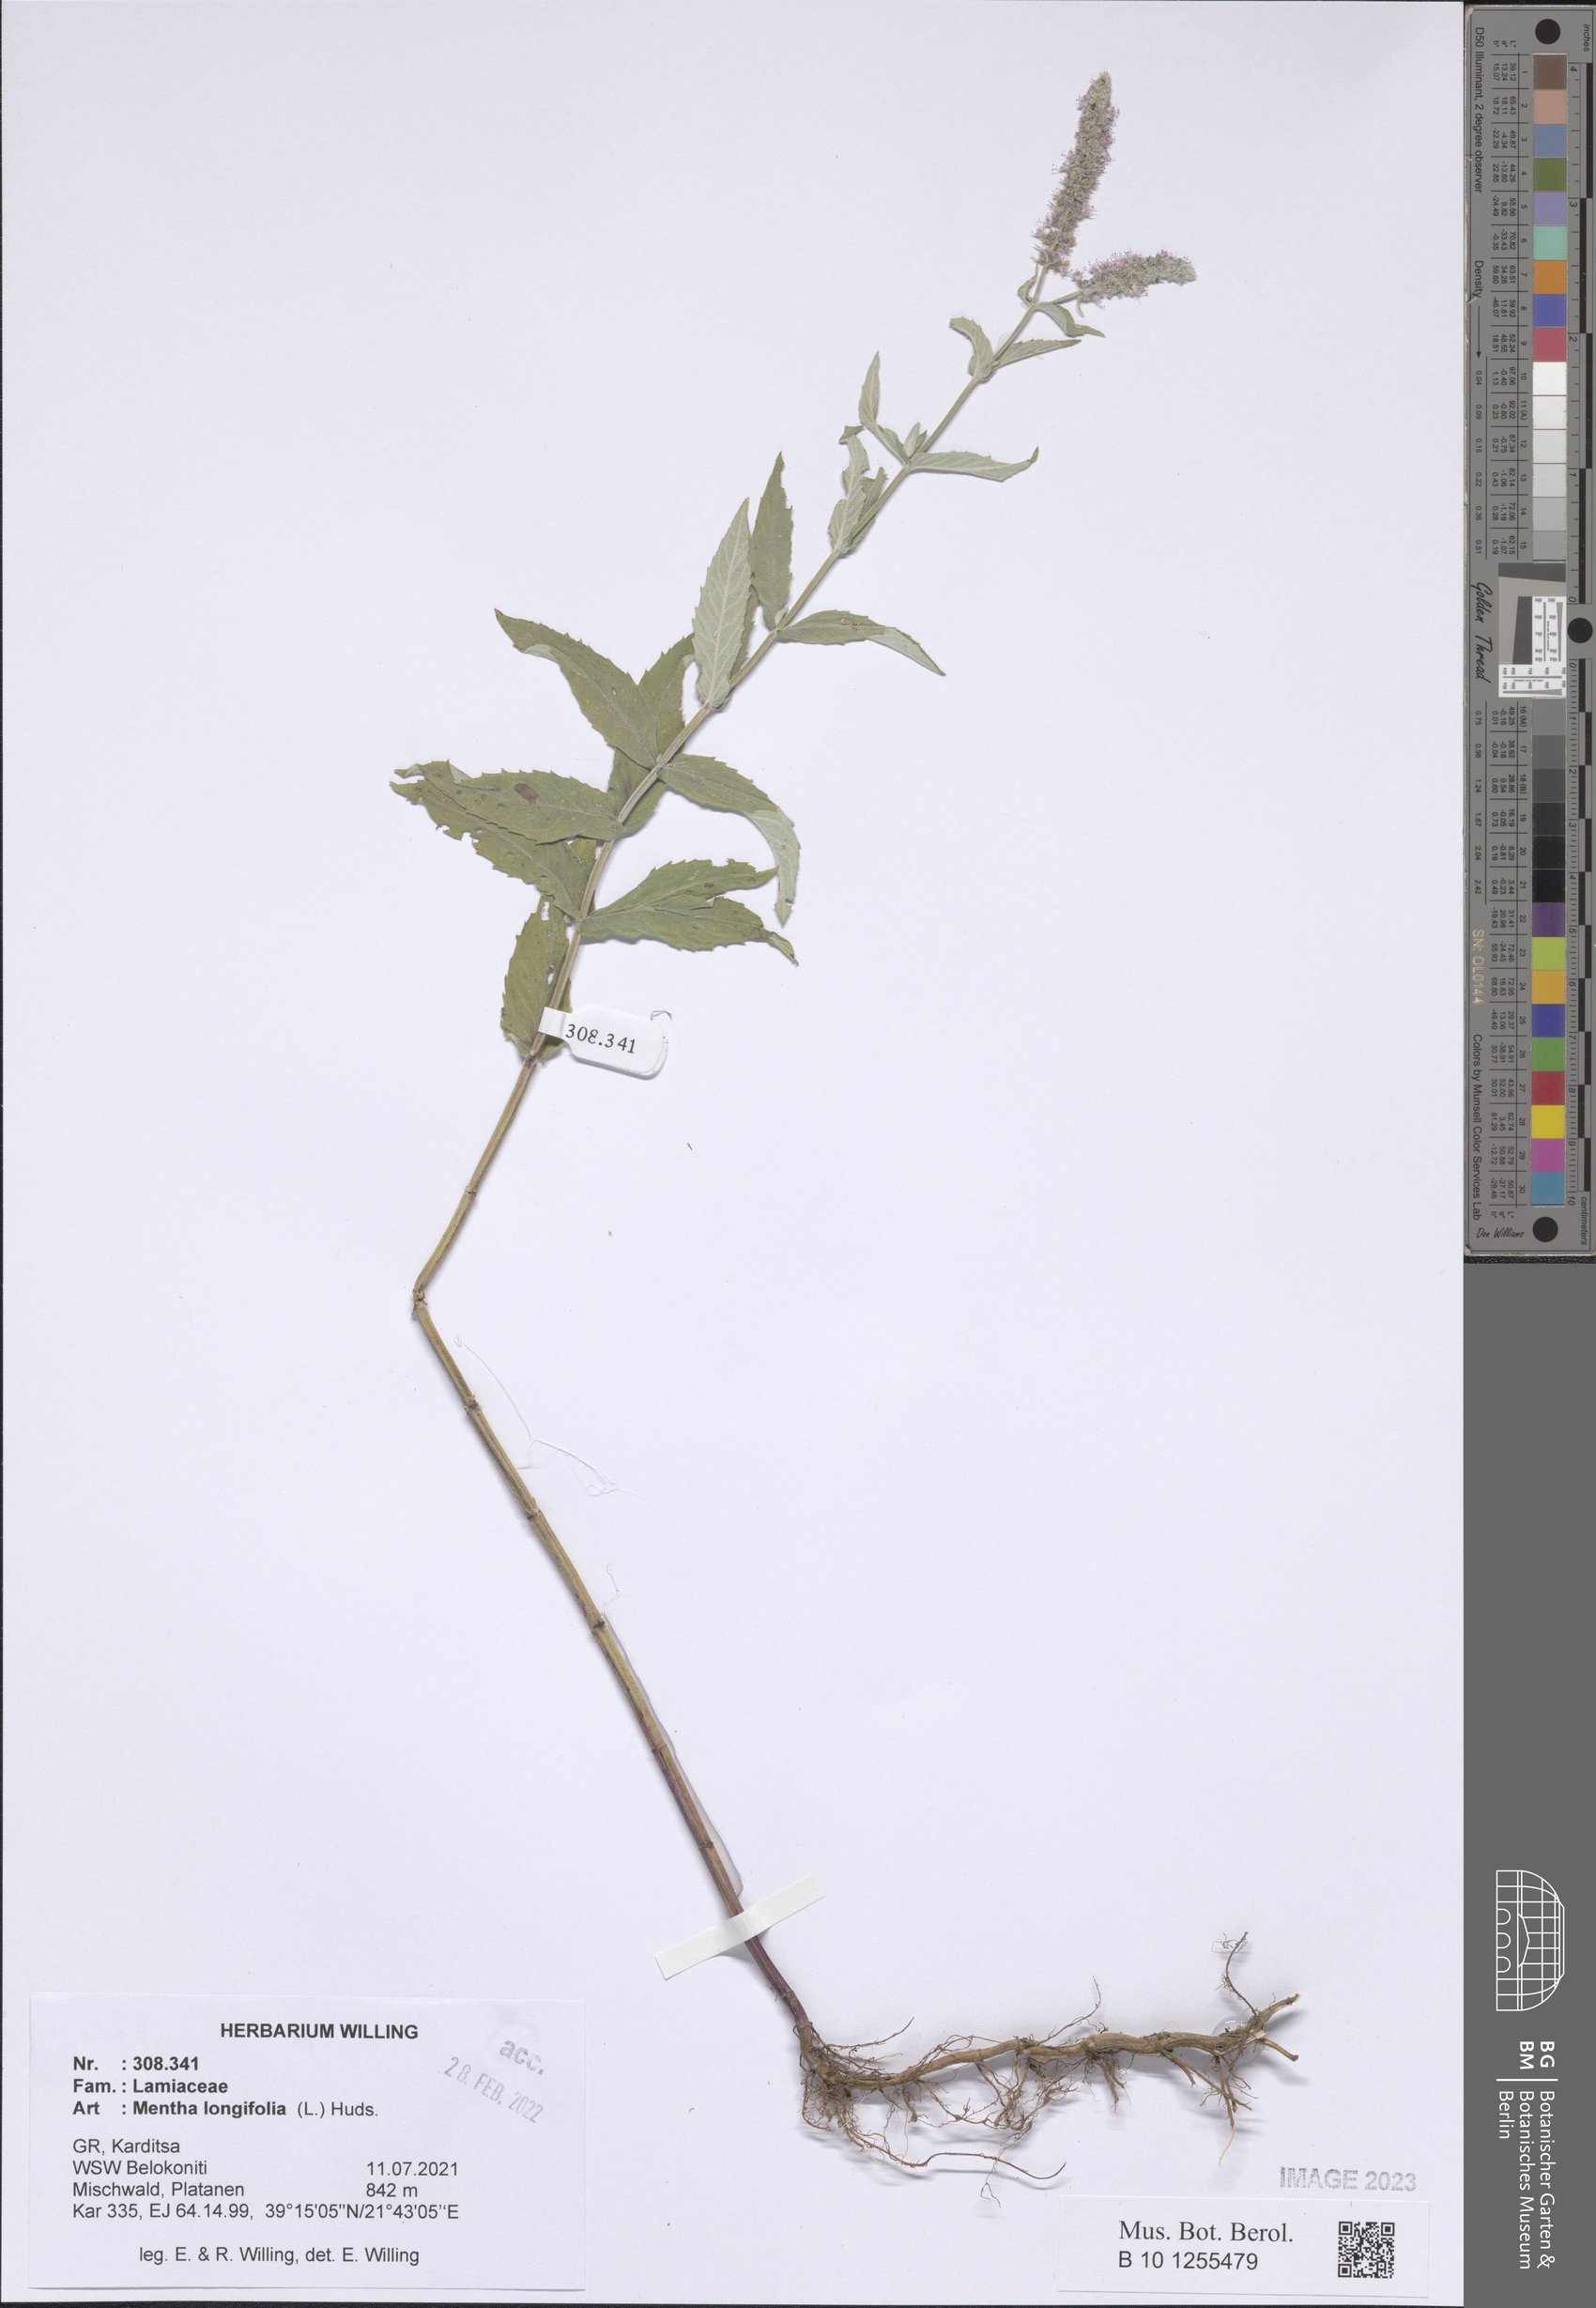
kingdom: Plantae
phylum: Tracheophyta
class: Magnoliopsida
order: Lamiales
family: Lamiaceae
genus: Mentha
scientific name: Mentha longifolia
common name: Horse mint
